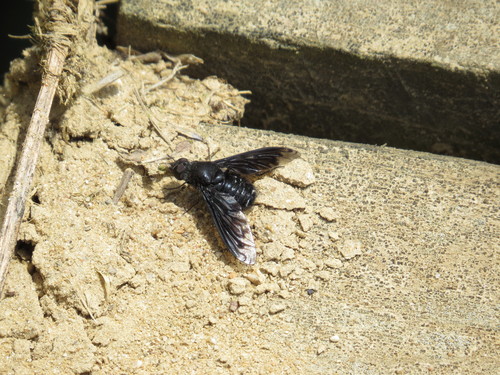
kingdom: Animalia
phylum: Arthropoda
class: Insecta
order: Diptera
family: Bombyliidae
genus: Anthrax
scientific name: Anthrax
